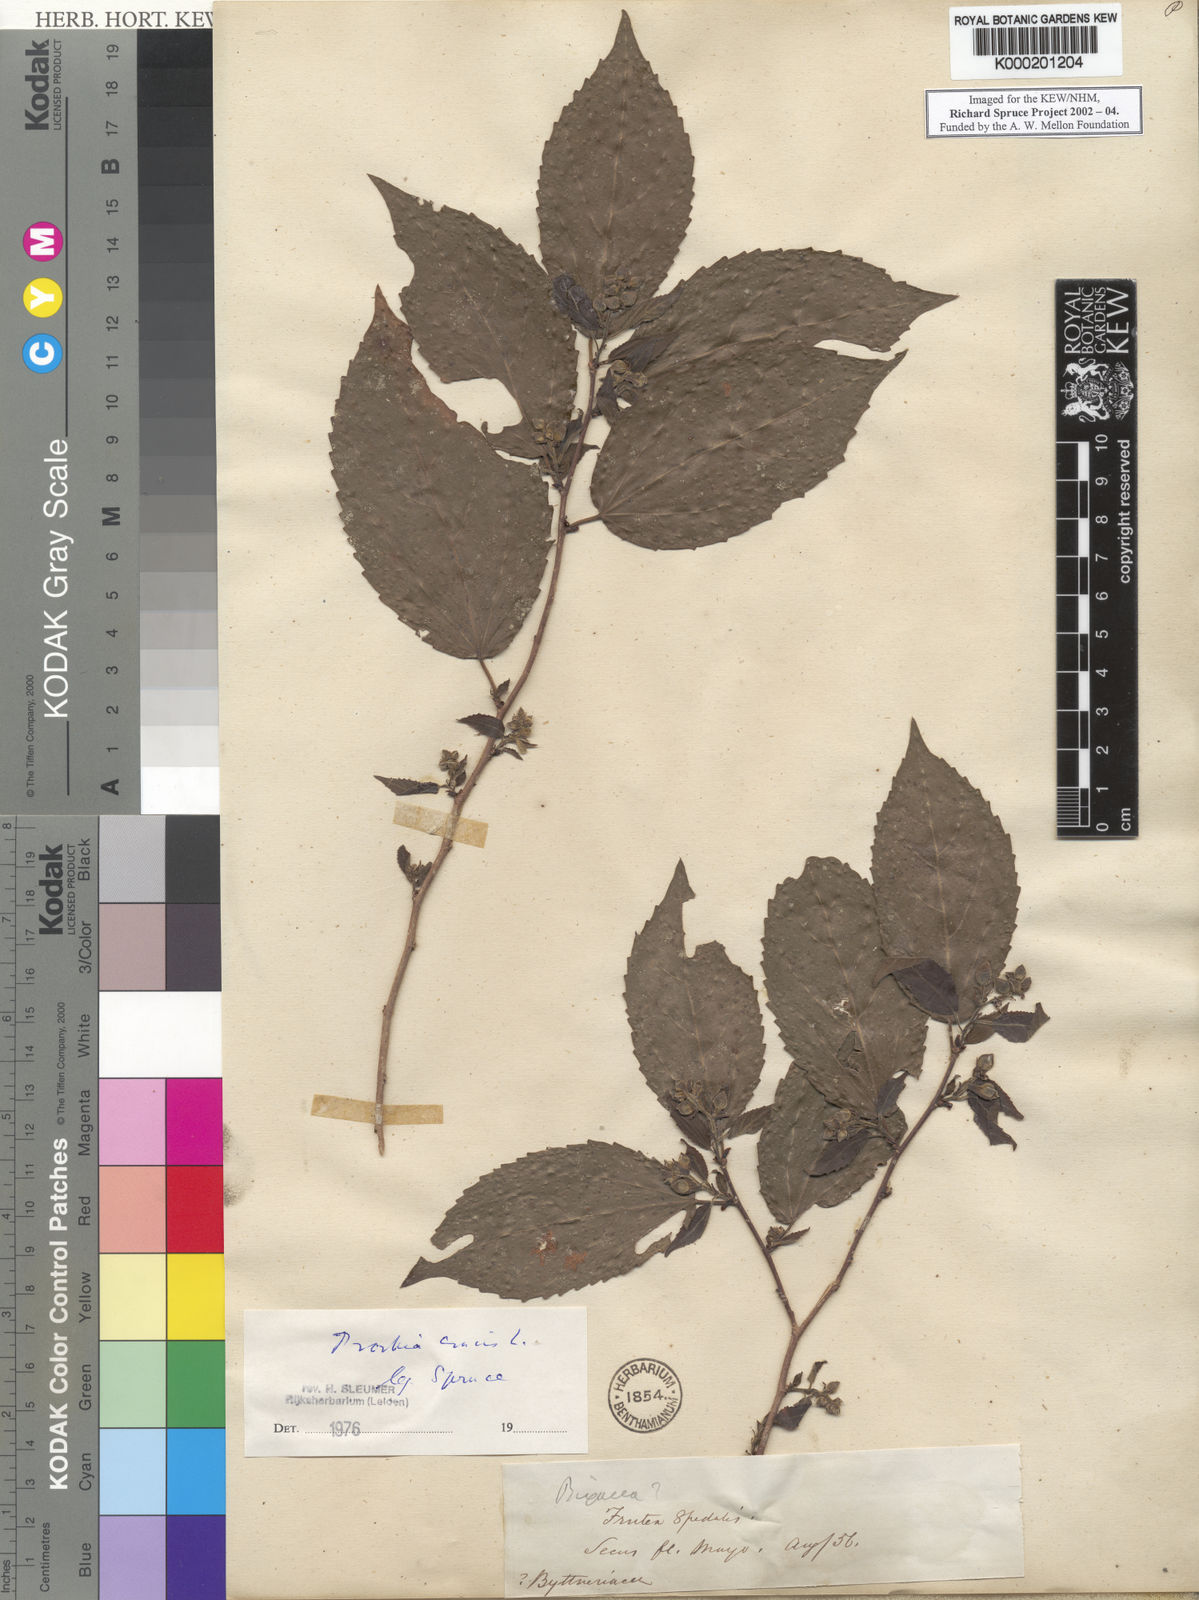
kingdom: Plantae
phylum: Tracheophyta
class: Magnoliopsida
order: Malpighiales
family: Salicaceae
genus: Prockia
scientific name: Prockia crucis
